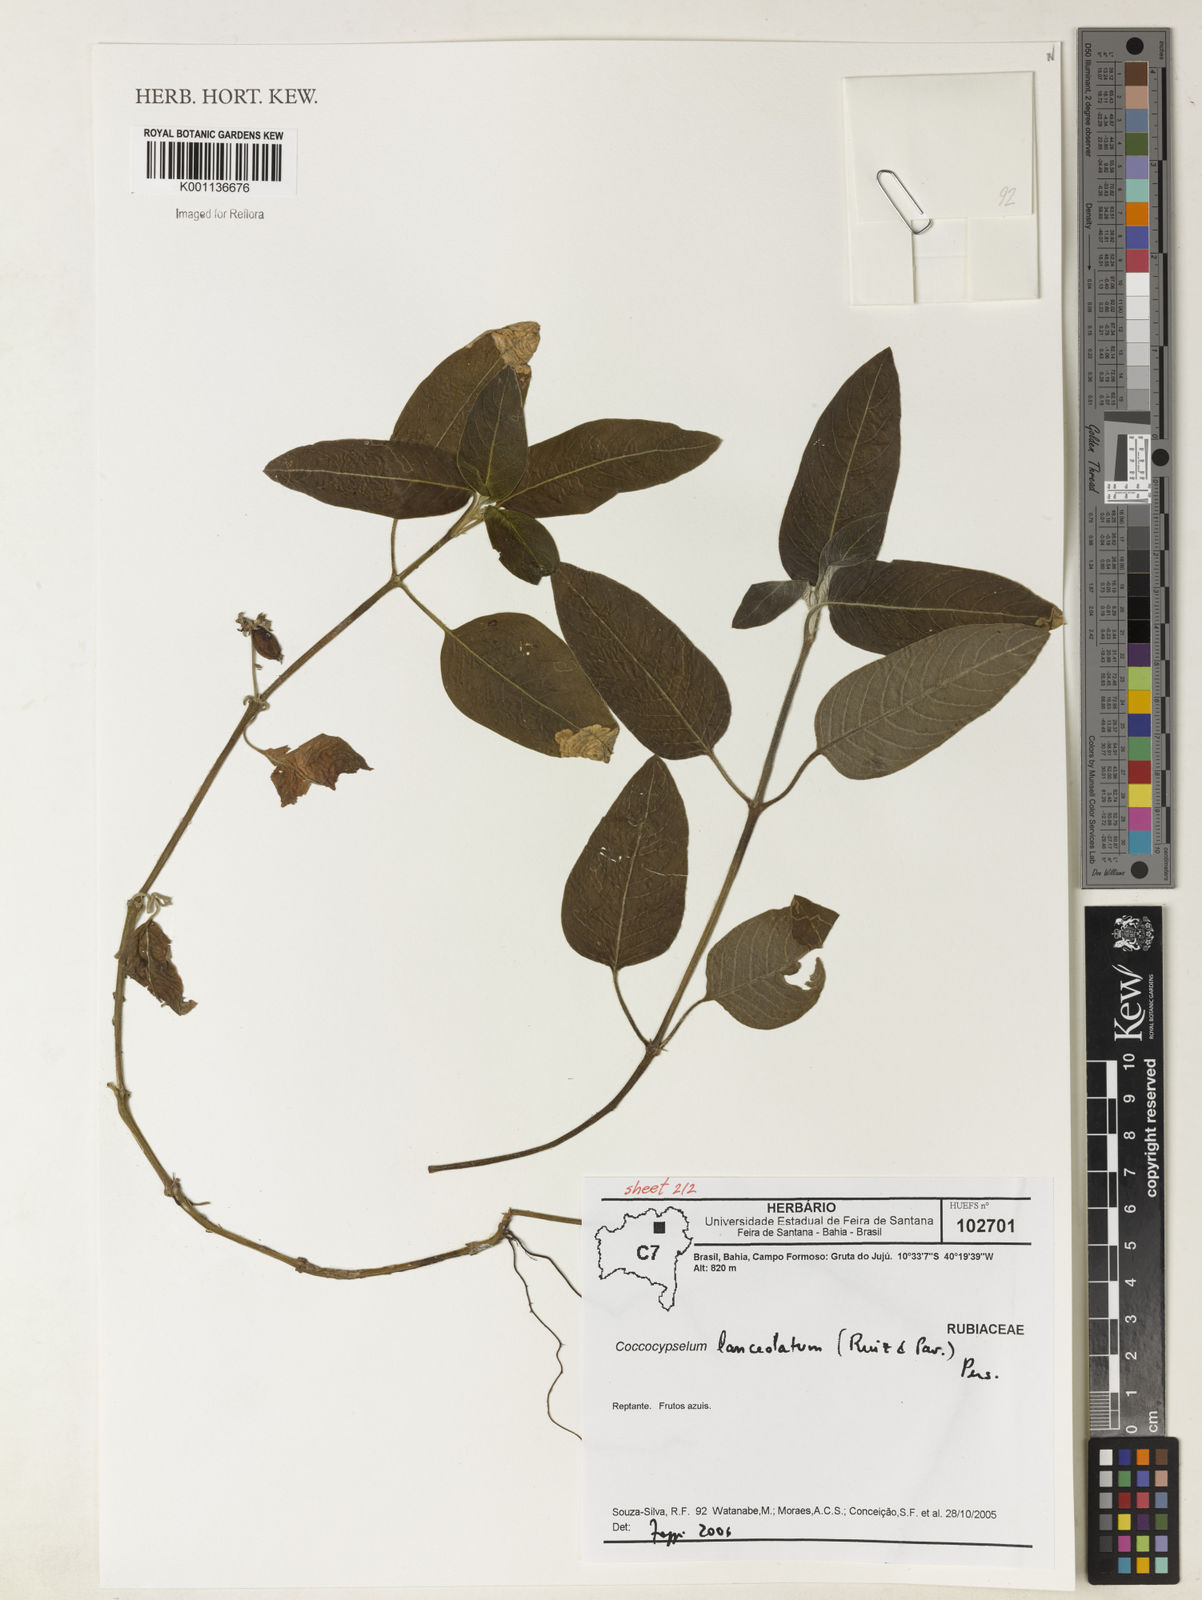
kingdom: Plantae
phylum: Tracheophyta
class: Magnoliopsida
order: Gentianales
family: Rubiaceae
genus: Coccocypselum
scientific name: Coccocypselum lanceolatum
